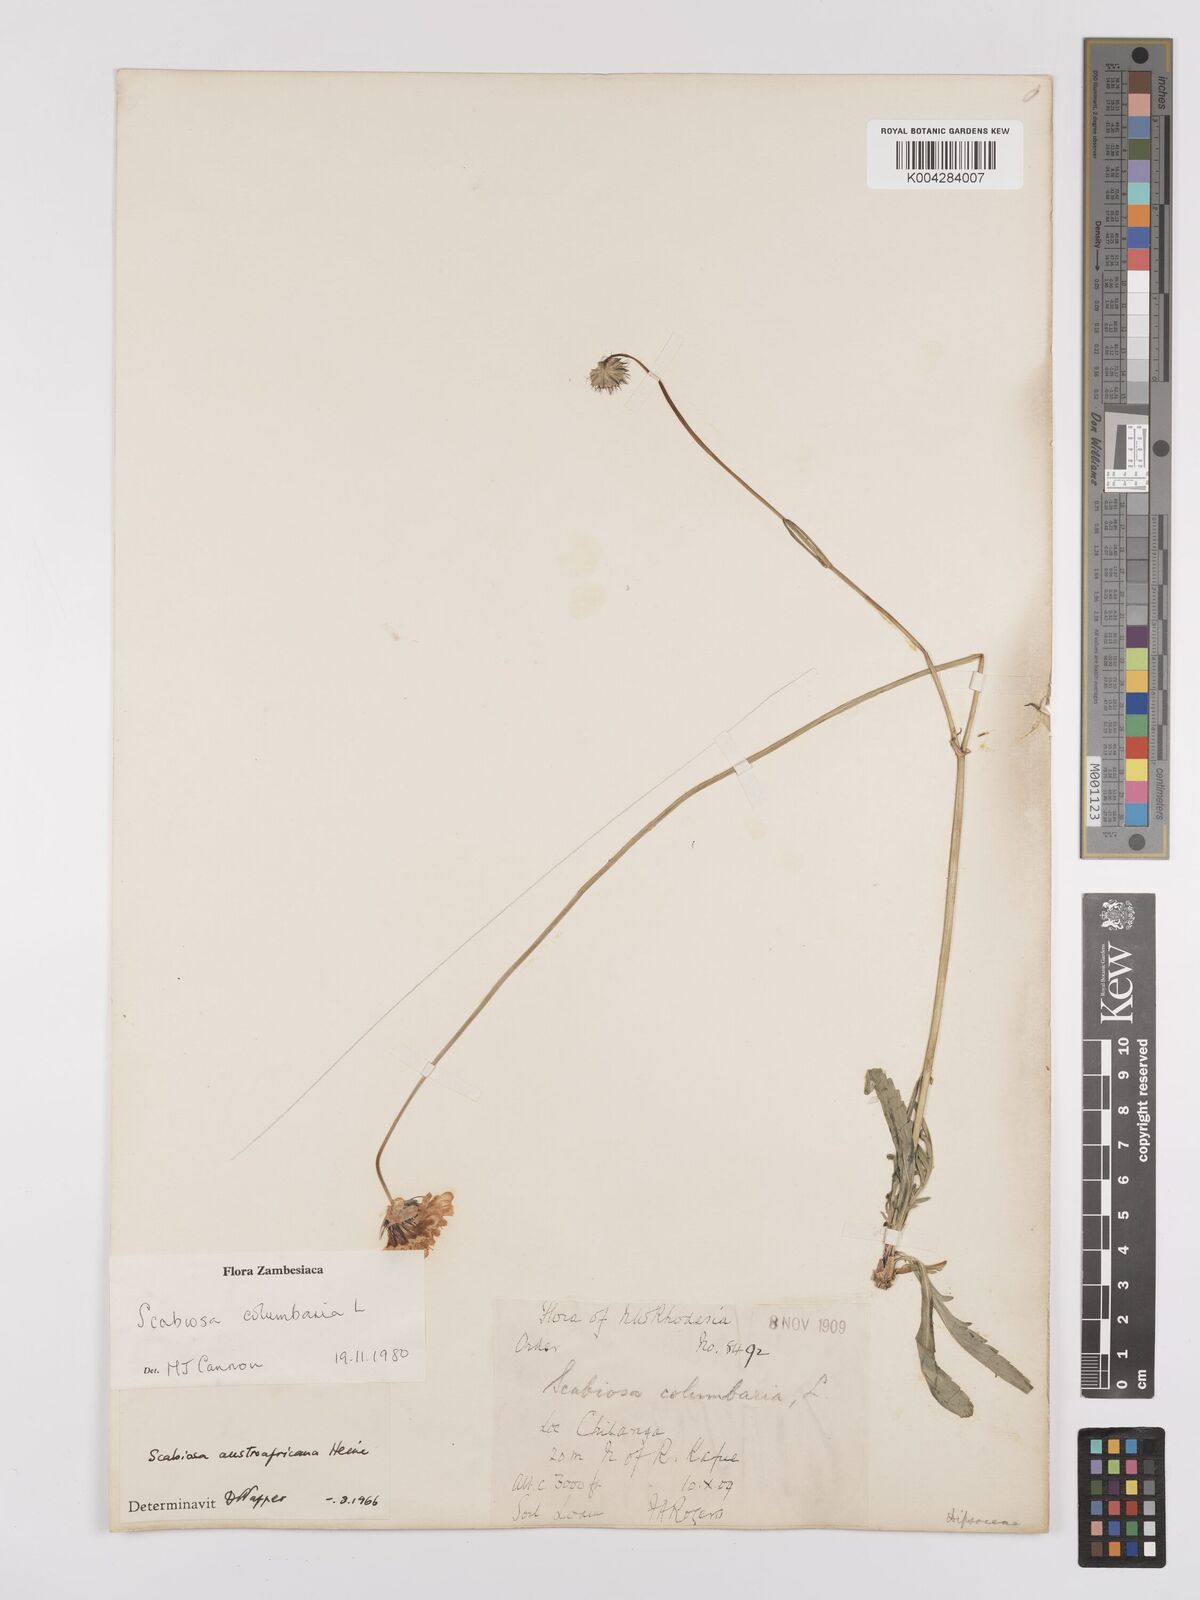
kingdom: Plantae
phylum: Tracheophyta
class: Magnoliopsida
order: Dipsacales
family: Caprifoliaceae
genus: Scabiosa
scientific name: Scabiosa austroafricana
